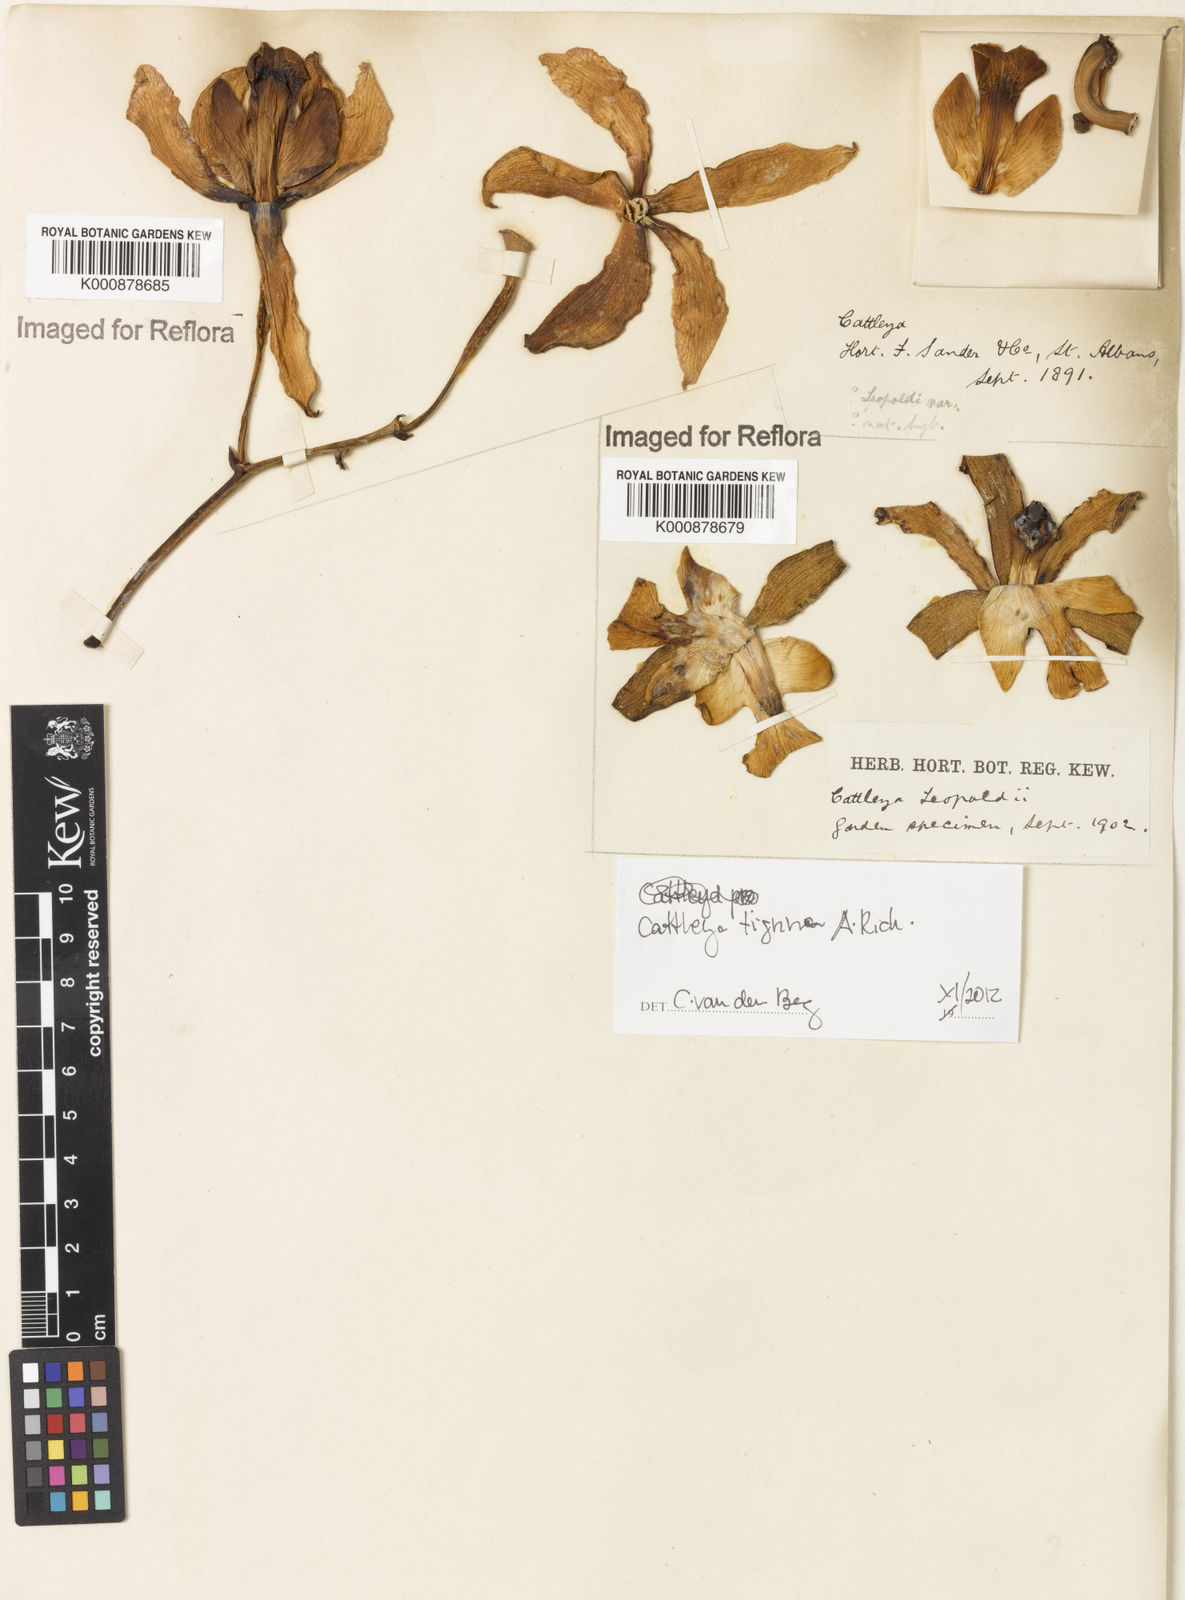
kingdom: Plantae
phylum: Tracheophyta
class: Liliopsida
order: Asparagales
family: Orchidaceae
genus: Cattleya
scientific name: Cattleya tigrina
